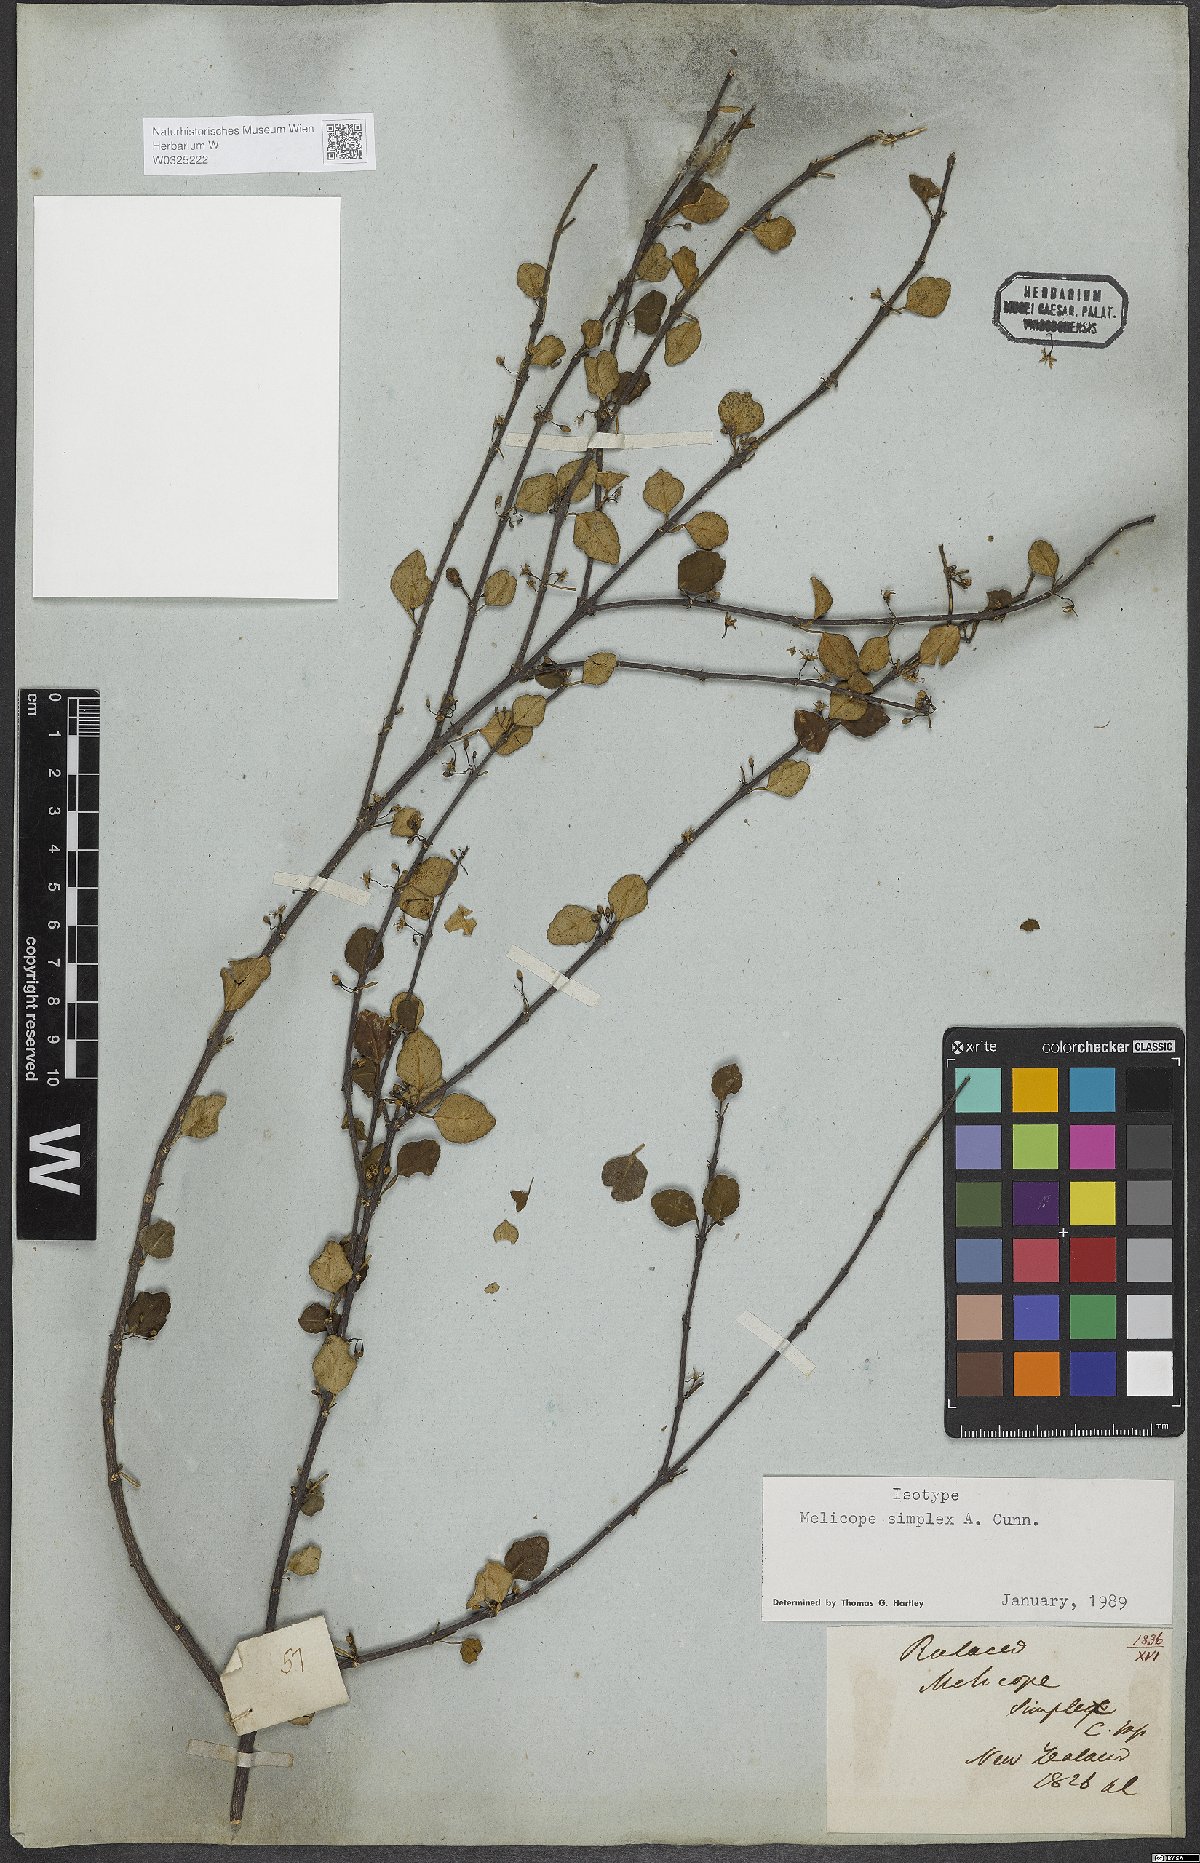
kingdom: Plantae
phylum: Tracheophyta
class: Magnoliopsida
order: Sapindales
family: Rutaceae
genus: Melicope
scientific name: Melicope simplex
